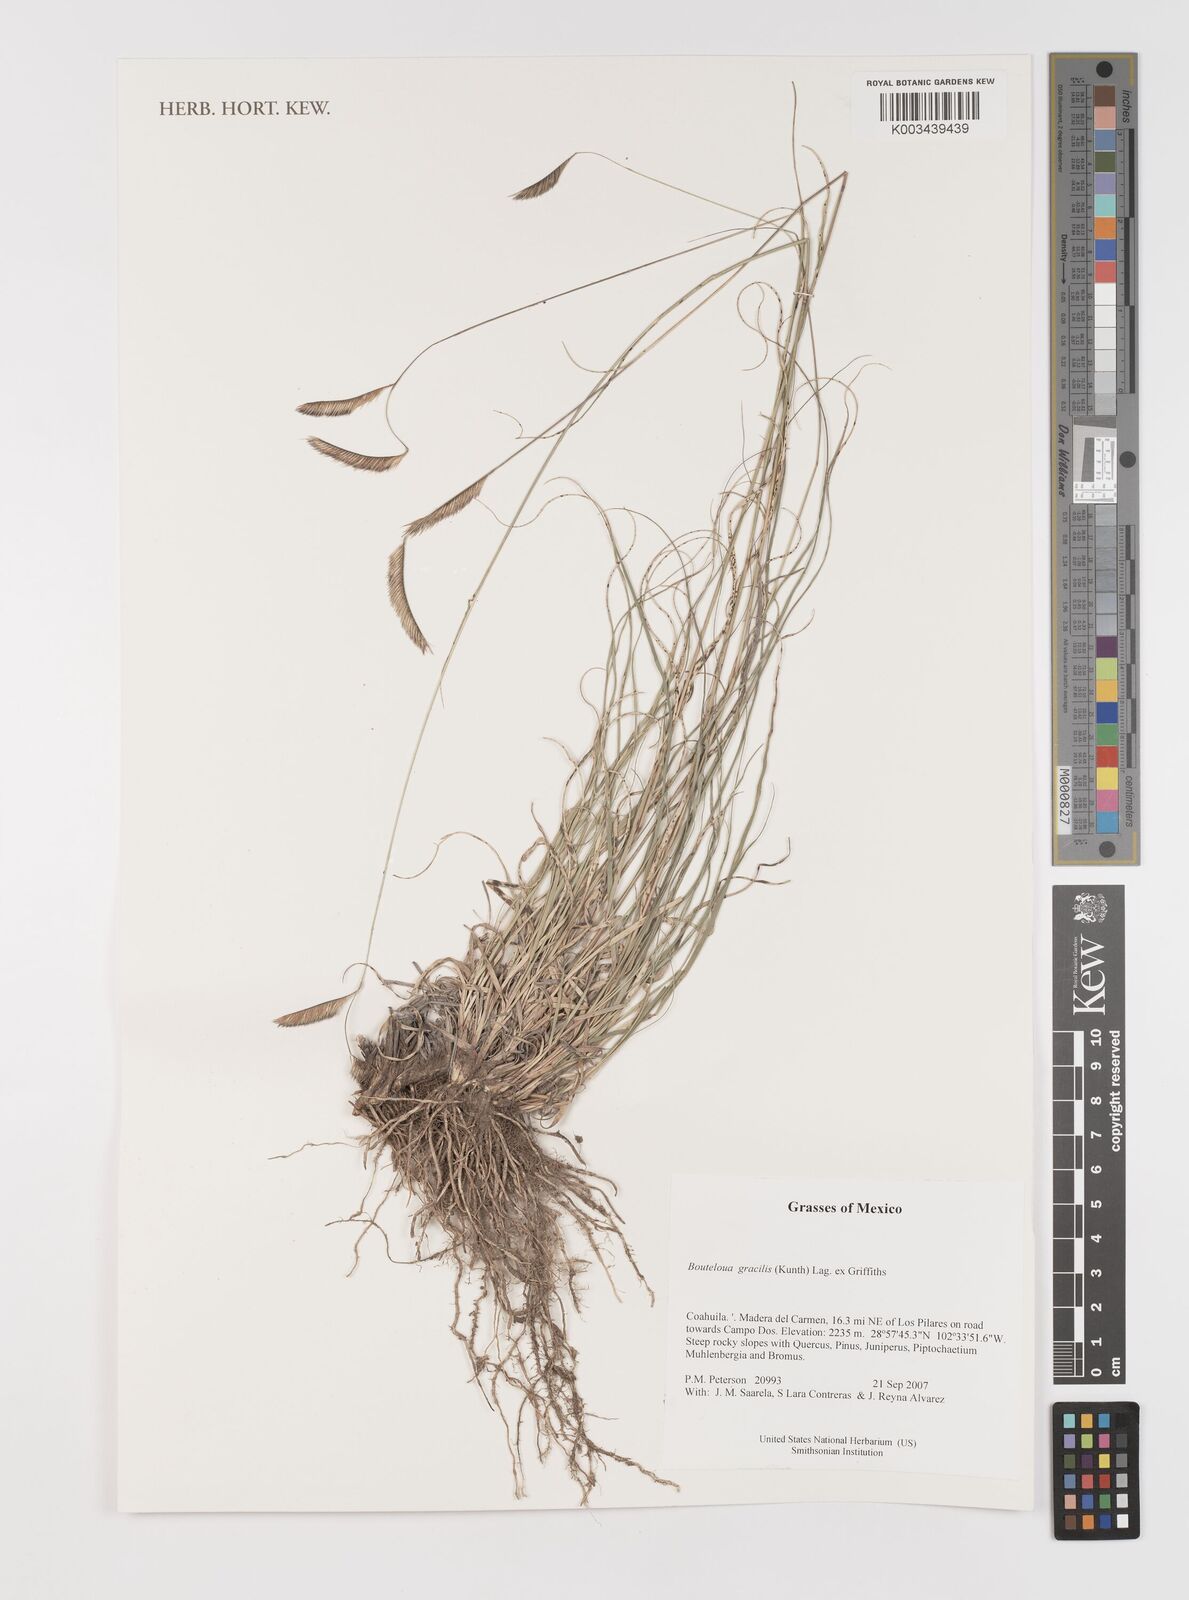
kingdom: Plantae
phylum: Tracheophyta
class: Liliopsida
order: Poales
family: Poaceae
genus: Bouteloua
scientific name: Bouteloua aristidoides
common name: Needle grama
